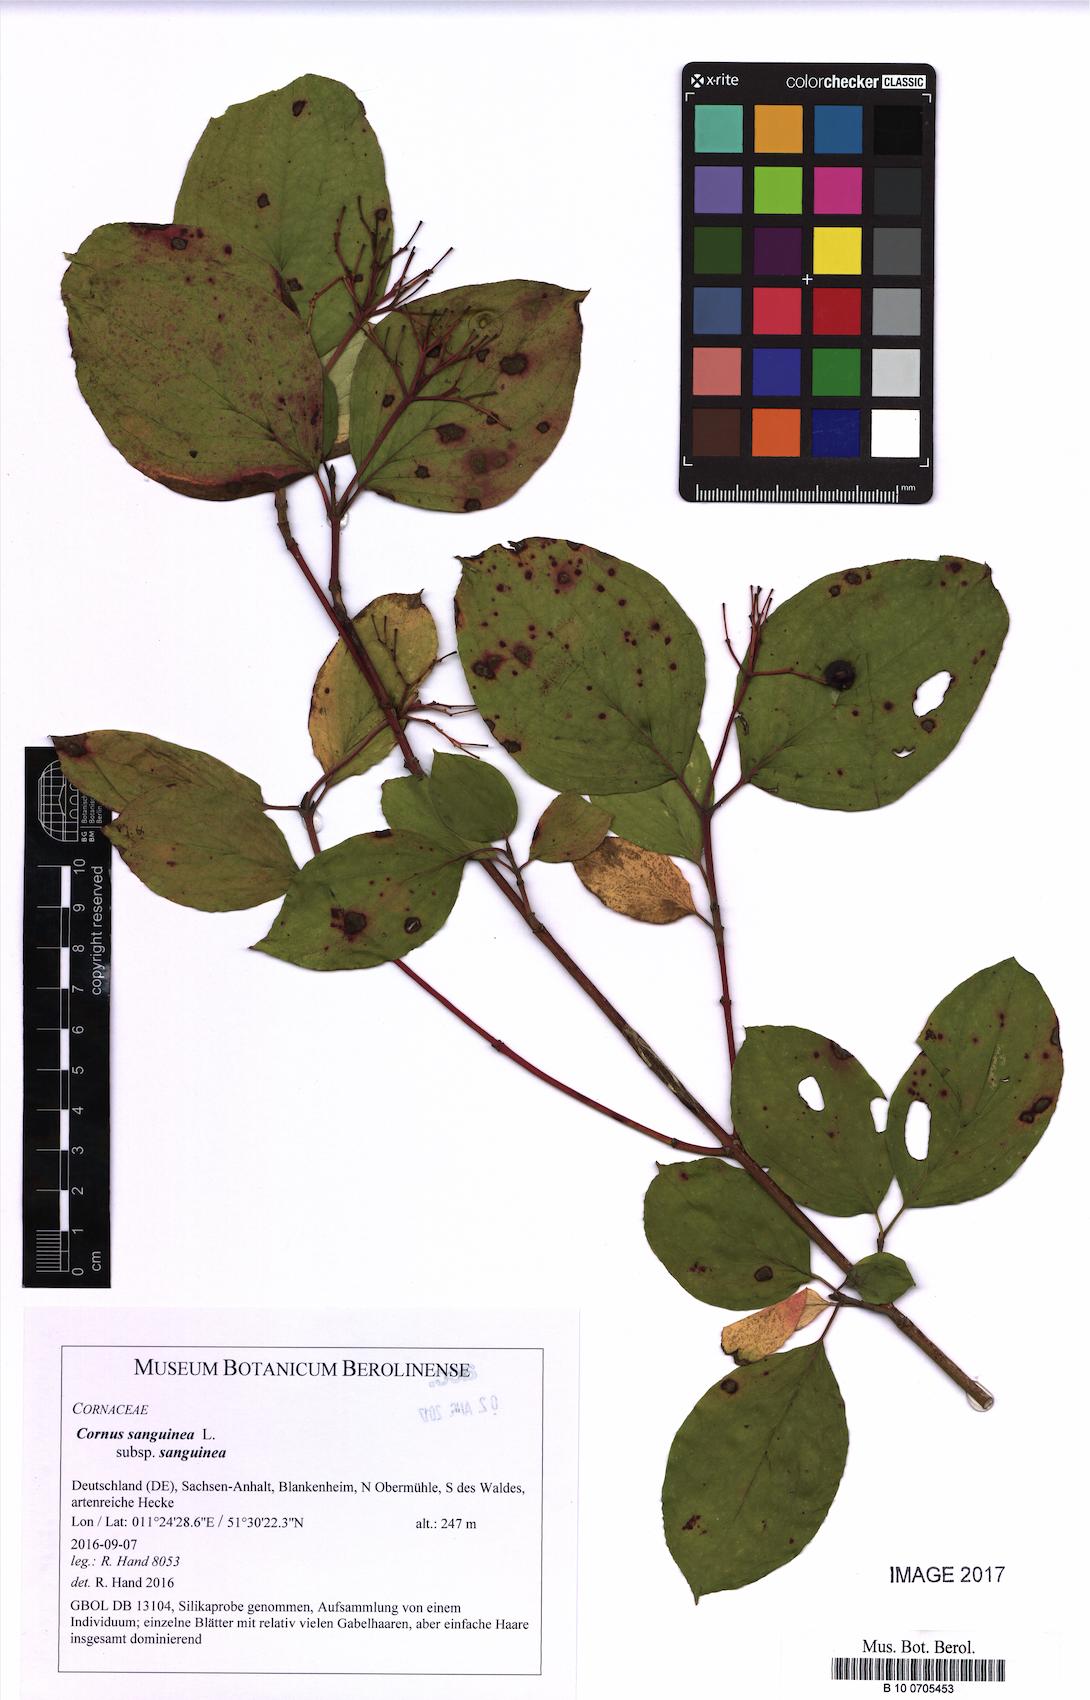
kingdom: Plantae
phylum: Tracheophyta
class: Magnoliopsida
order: Cornales
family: Cornaceae
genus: Cornus
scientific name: Cornus sanguinea
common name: Dogwood
